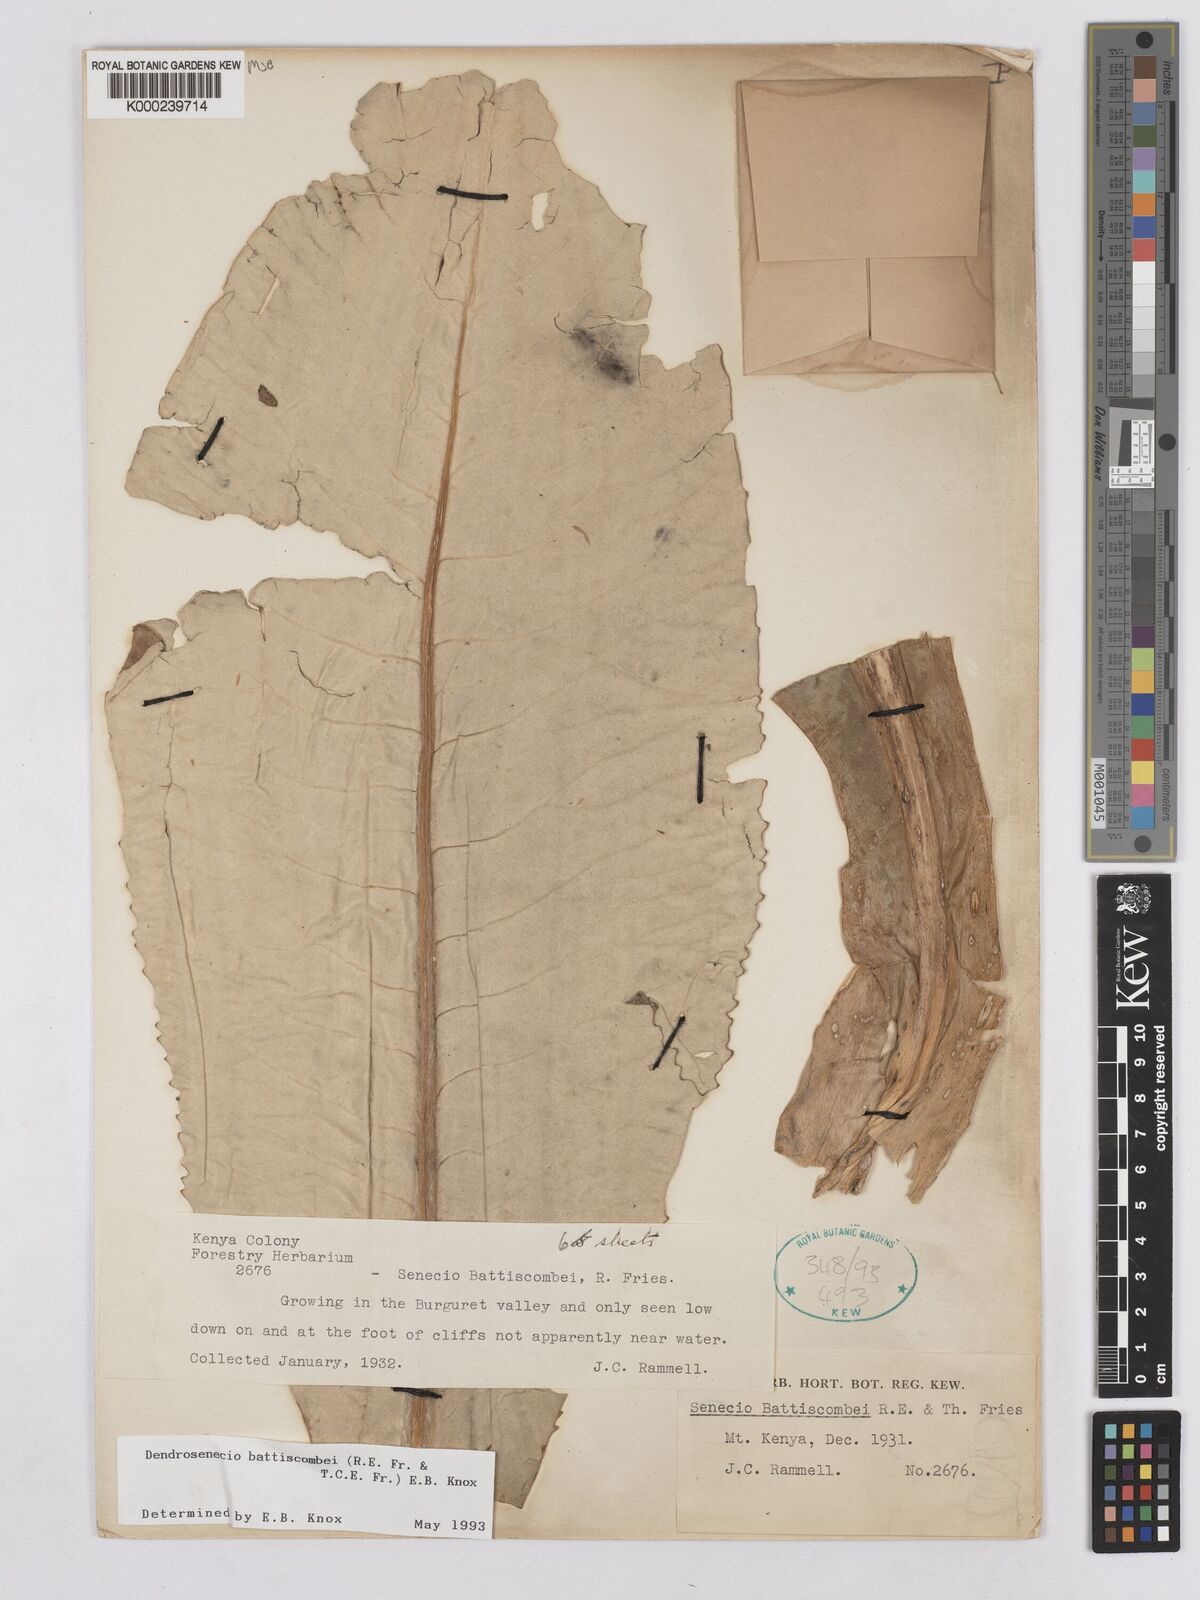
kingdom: Plantae
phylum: Tracheophyta
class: Magnoliopsida
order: Asterales
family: Asteraceae
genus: Dendrosenecio
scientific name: Dendrosenecio battiscombei
